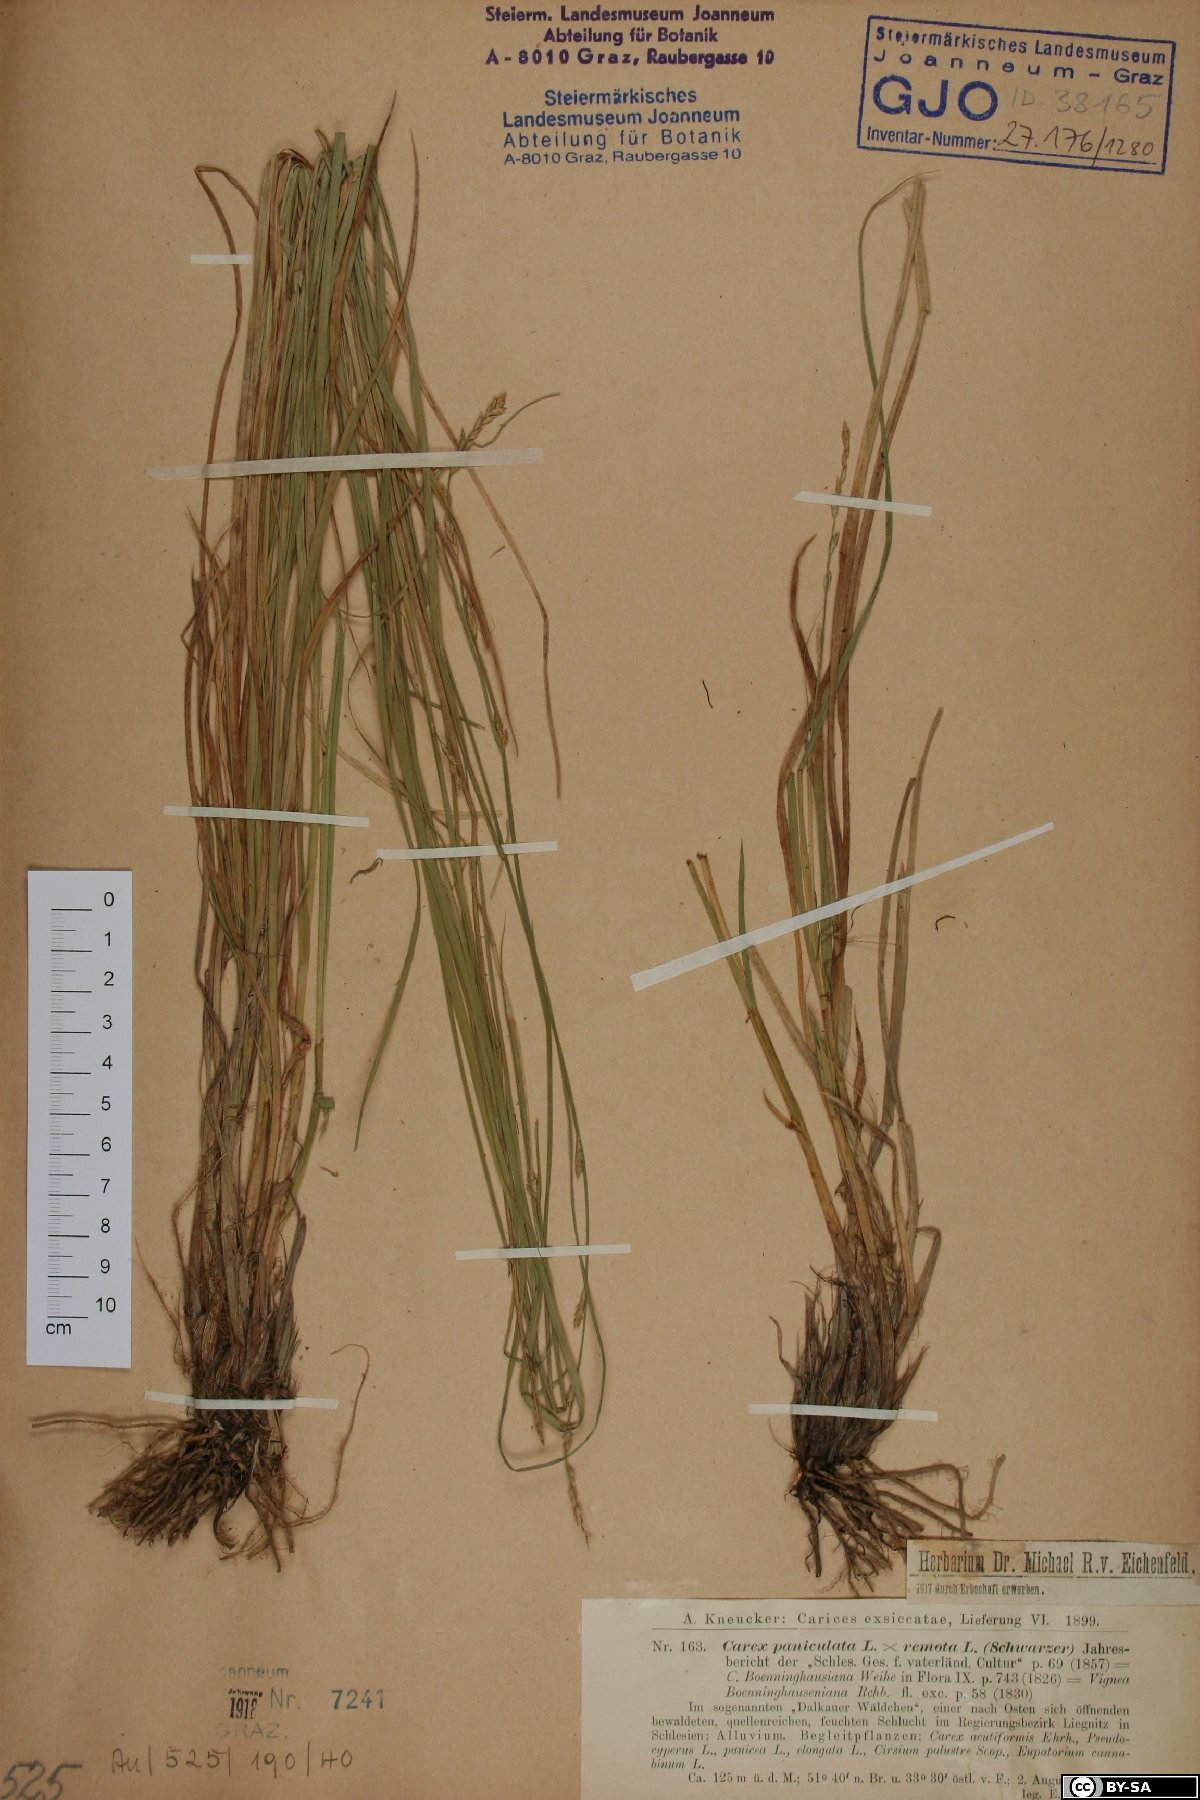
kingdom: Plantae
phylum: Tracheophyta
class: Liliopsida
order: Poales
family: Cyperaceae
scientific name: Cyperaceae
